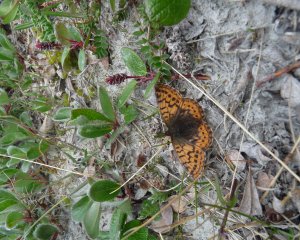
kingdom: Animalia
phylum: Arthropoda
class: Insecta
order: Lepidoptera
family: Nymphalidae
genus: Boloria
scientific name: Boloria chariclea
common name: Arctic Fritillary
